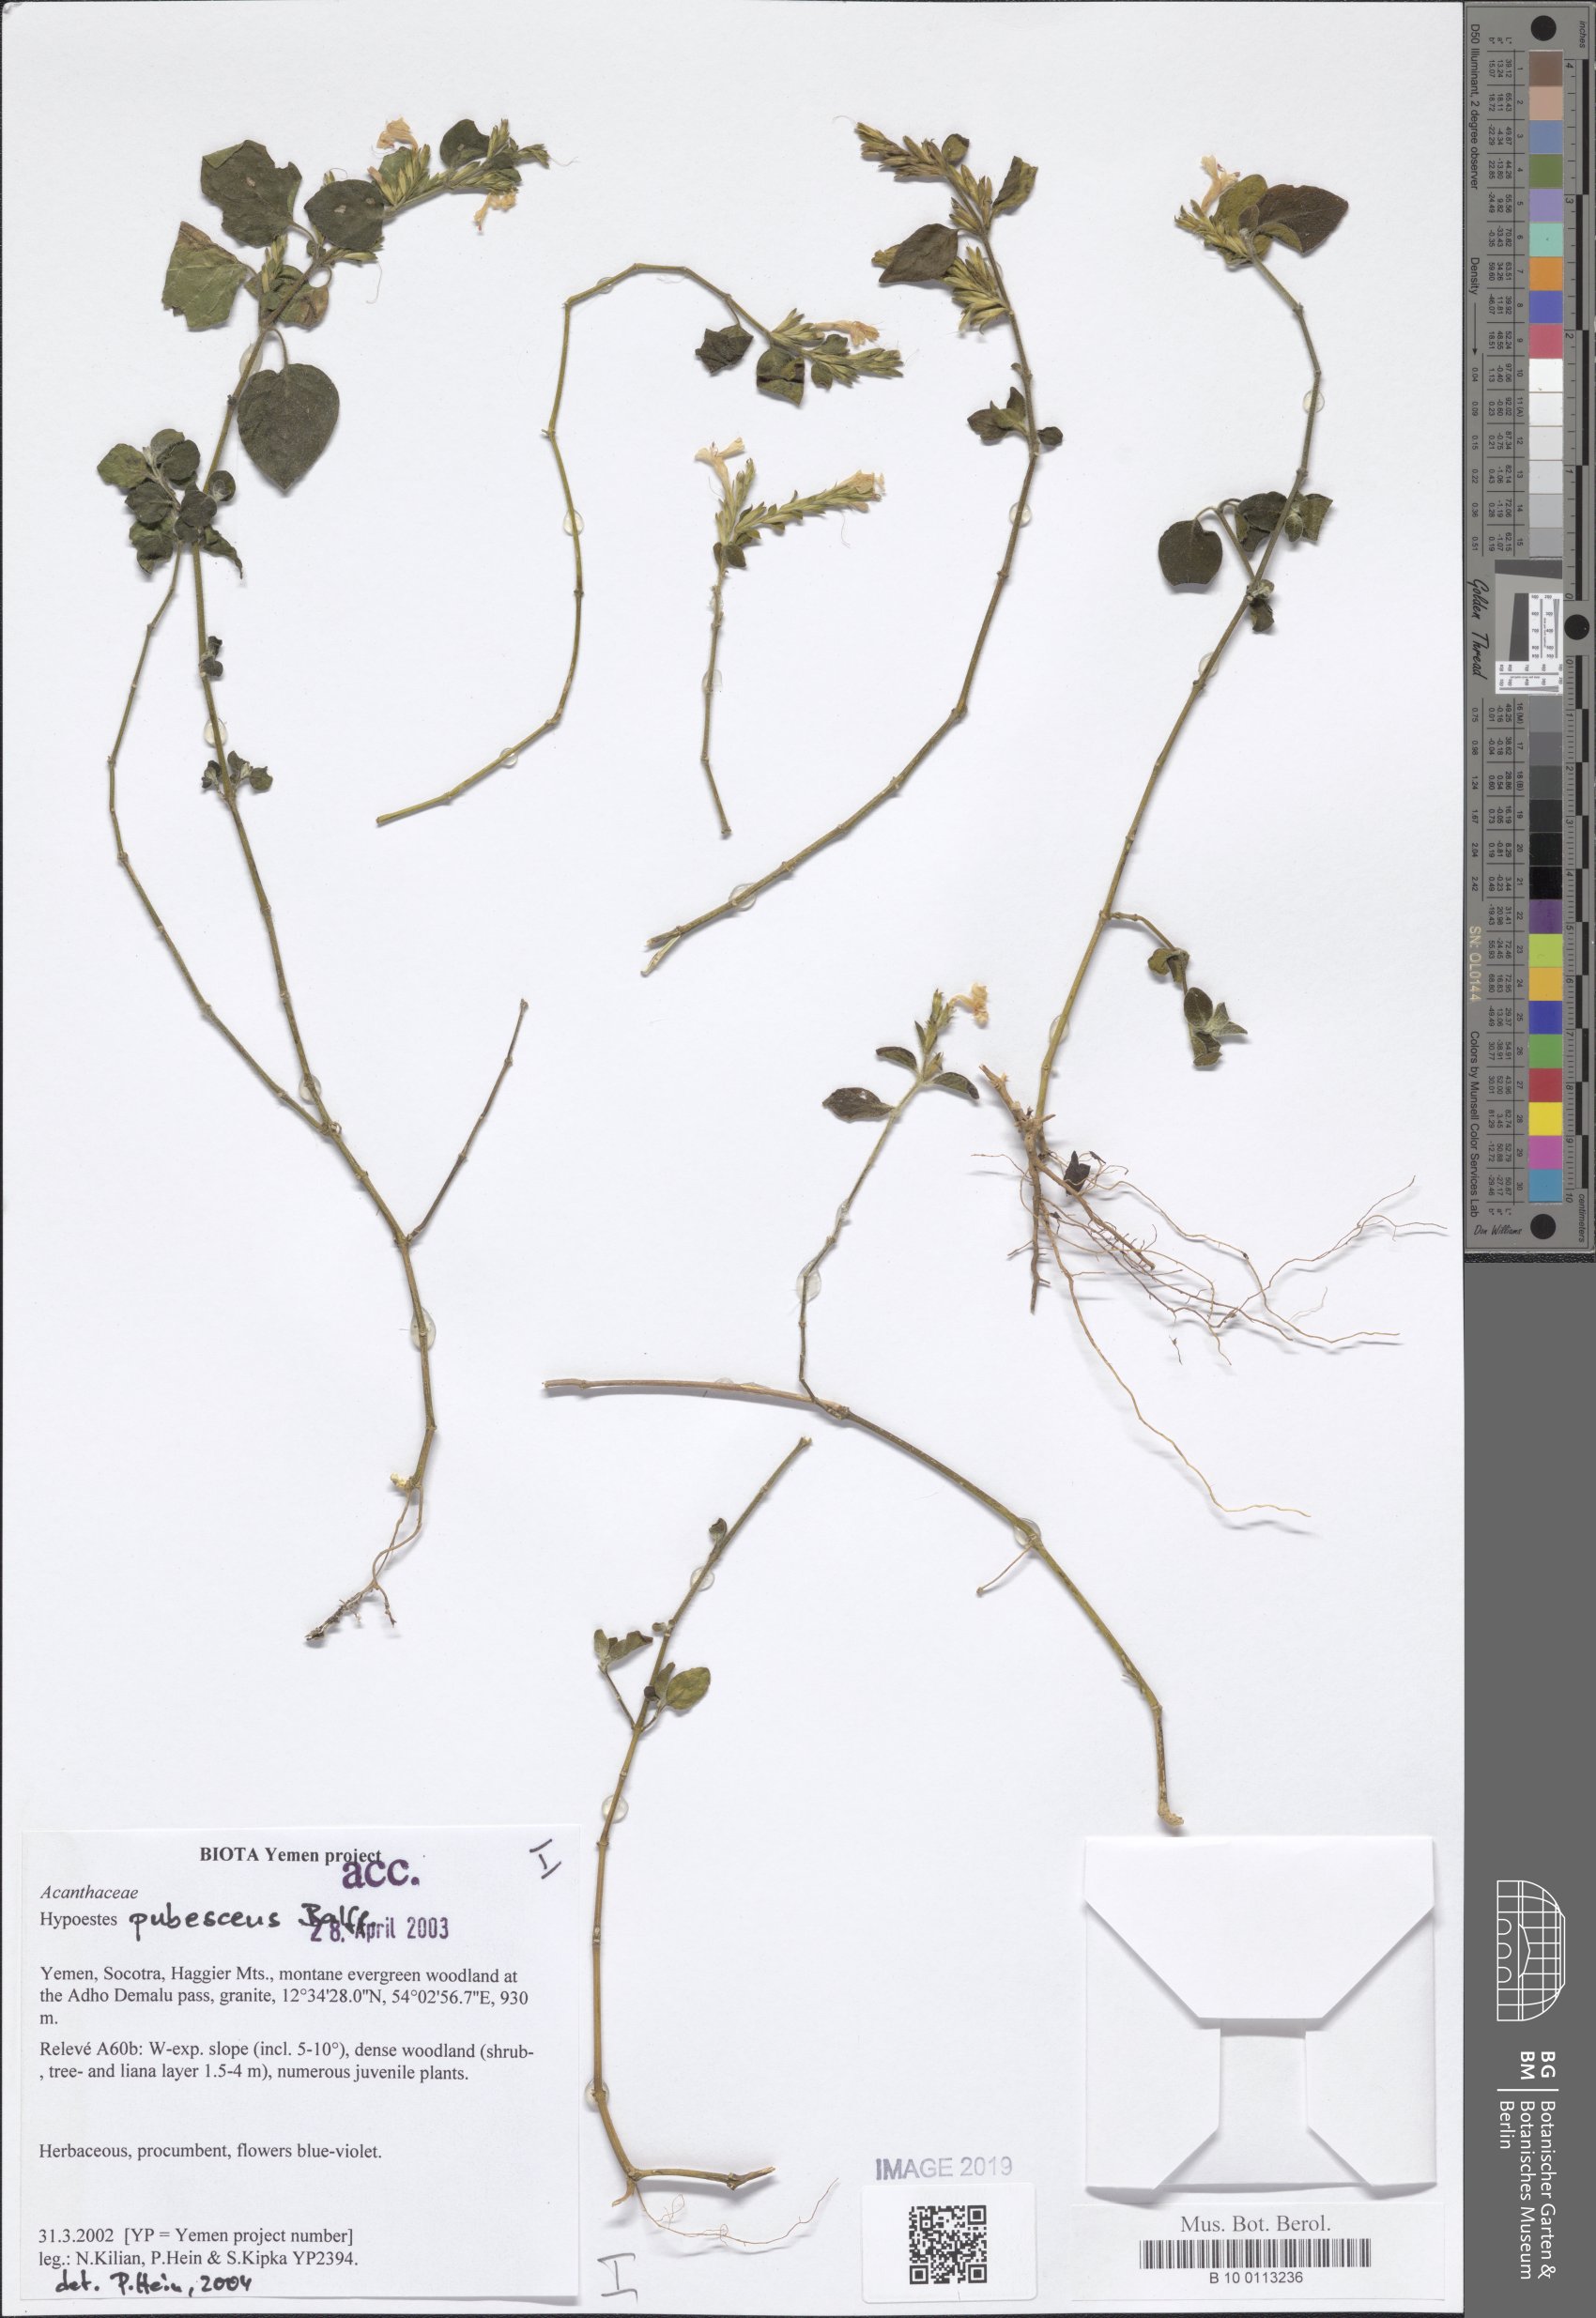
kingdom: Plantae
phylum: Tracheophyta
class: Magnoliopsida
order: Lamiales
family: Acanthaceae
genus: Hypoestes
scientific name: Hypoestes pubescens
